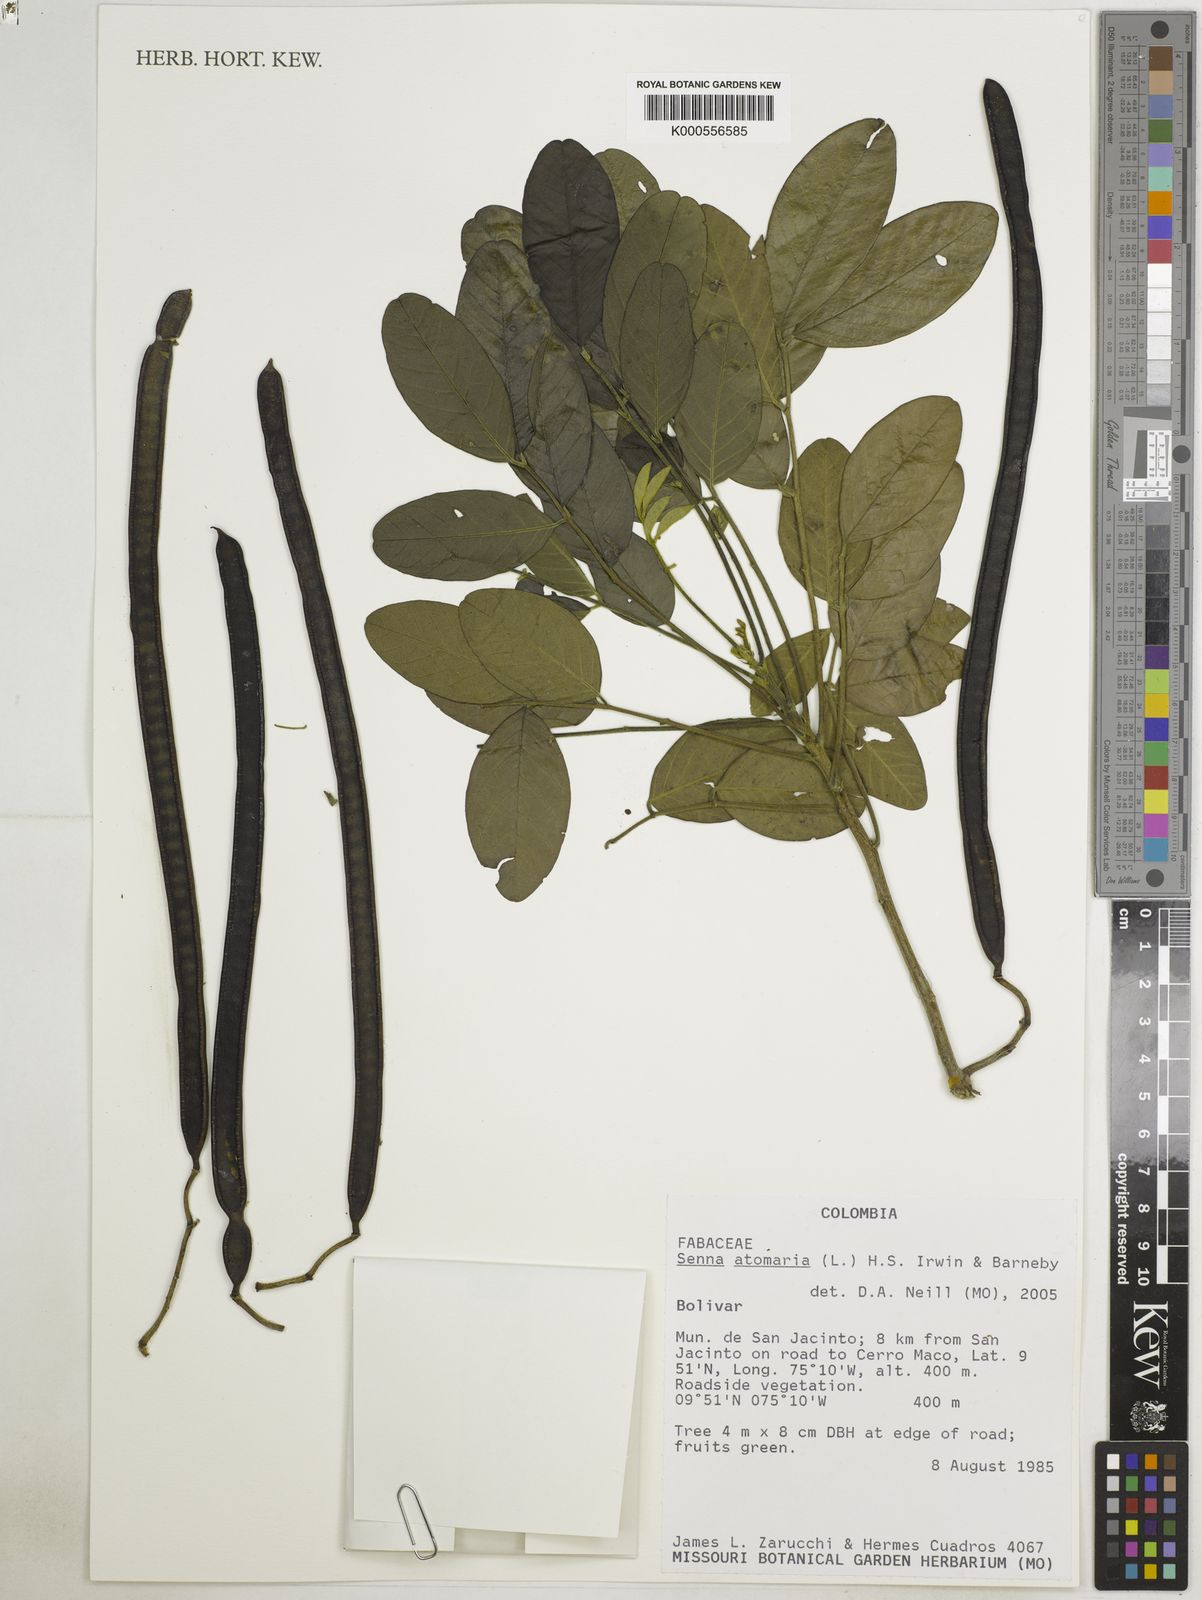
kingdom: Plantae
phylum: Tracheophyta
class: Magnoliopsida
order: Fabales
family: Fabaceae
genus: Senna
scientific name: Senna atomaria
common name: Flor de san jose
